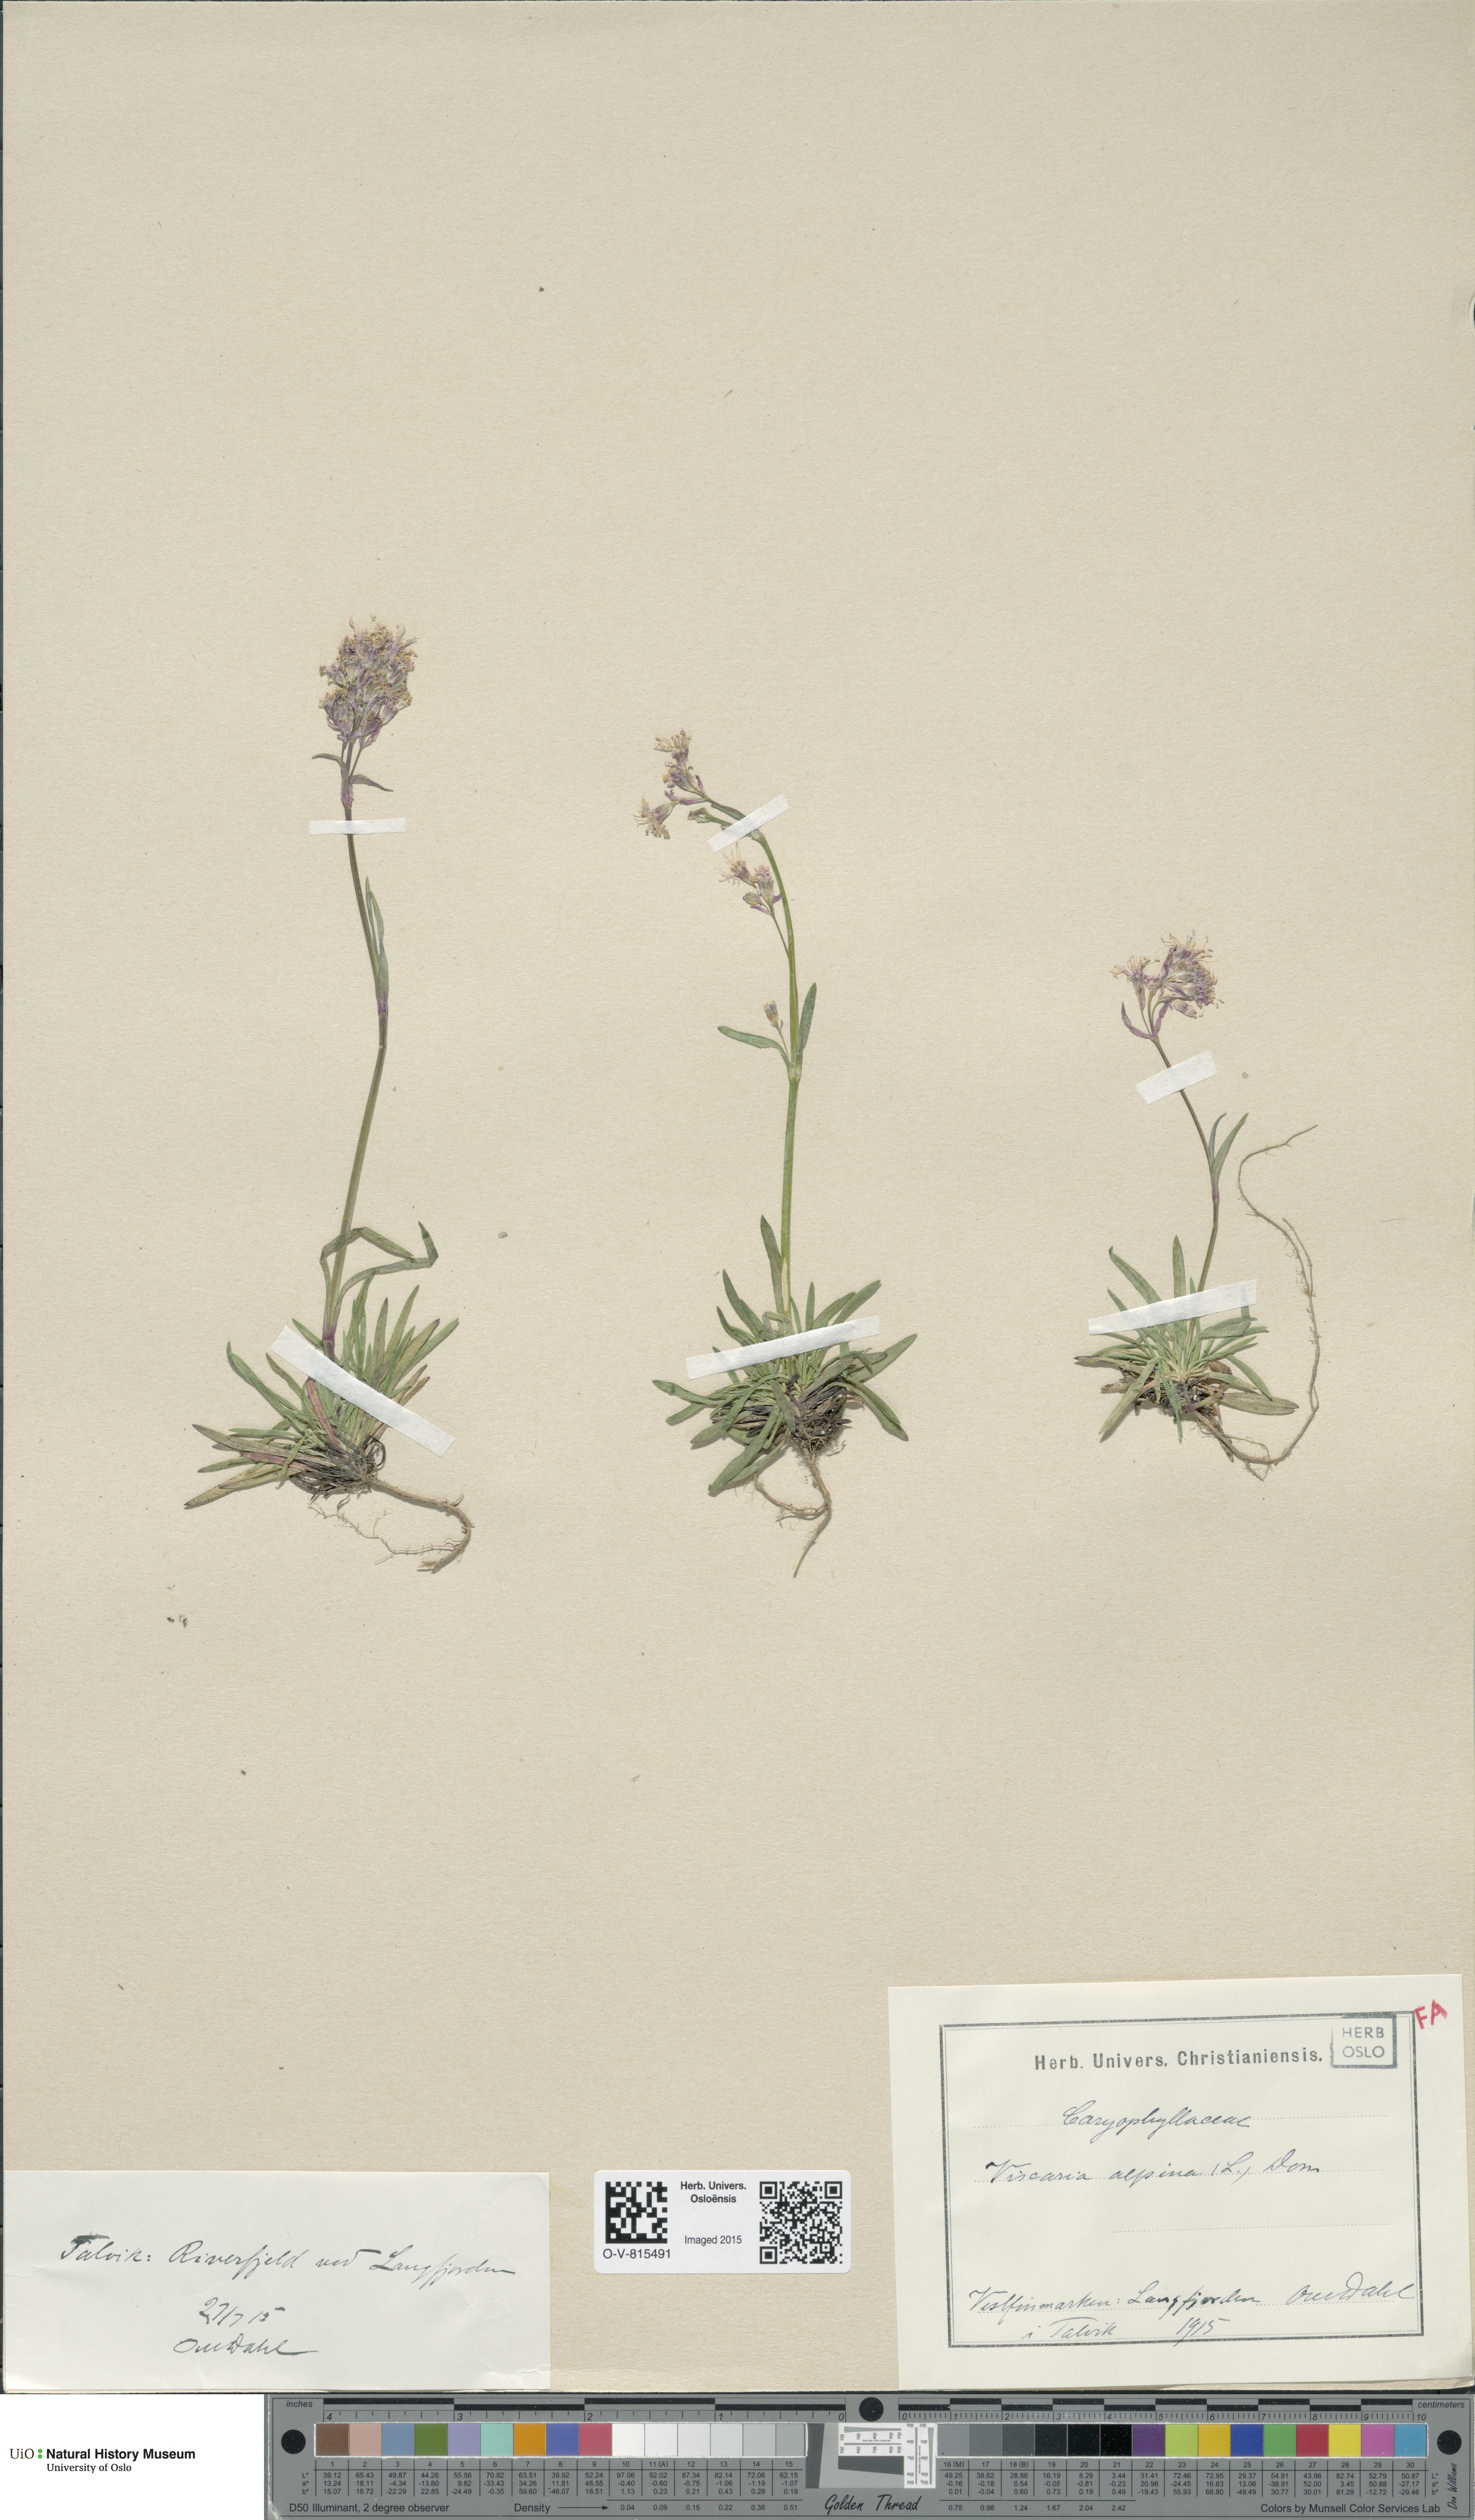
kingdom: Plantae
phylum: Tracheophyta
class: Magnoliopsida
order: Caryophyllales
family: Caryophyllaceae
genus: Viscaria
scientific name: Viscaria alpina
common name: Alpine campion
